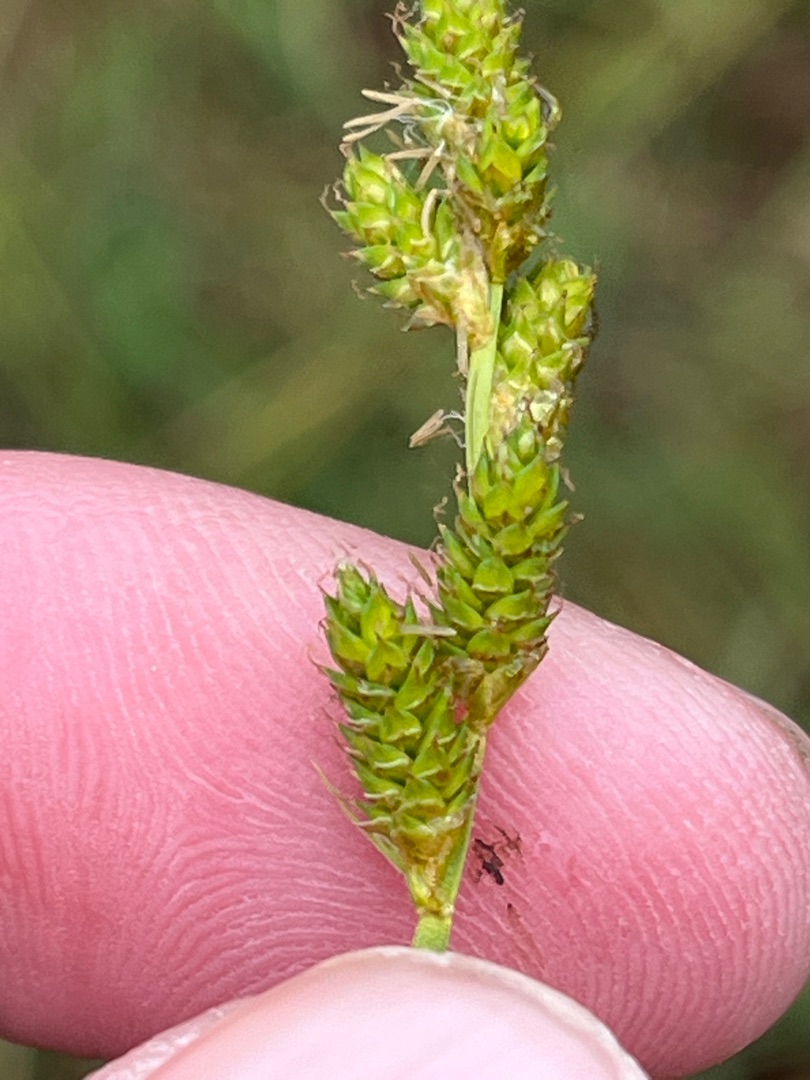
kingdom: Plantae
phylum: Tracheophyta
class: Liliopsida
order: Poales
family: Cyperaceae
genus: Carex
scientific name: Carex canescens
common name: Grå star
